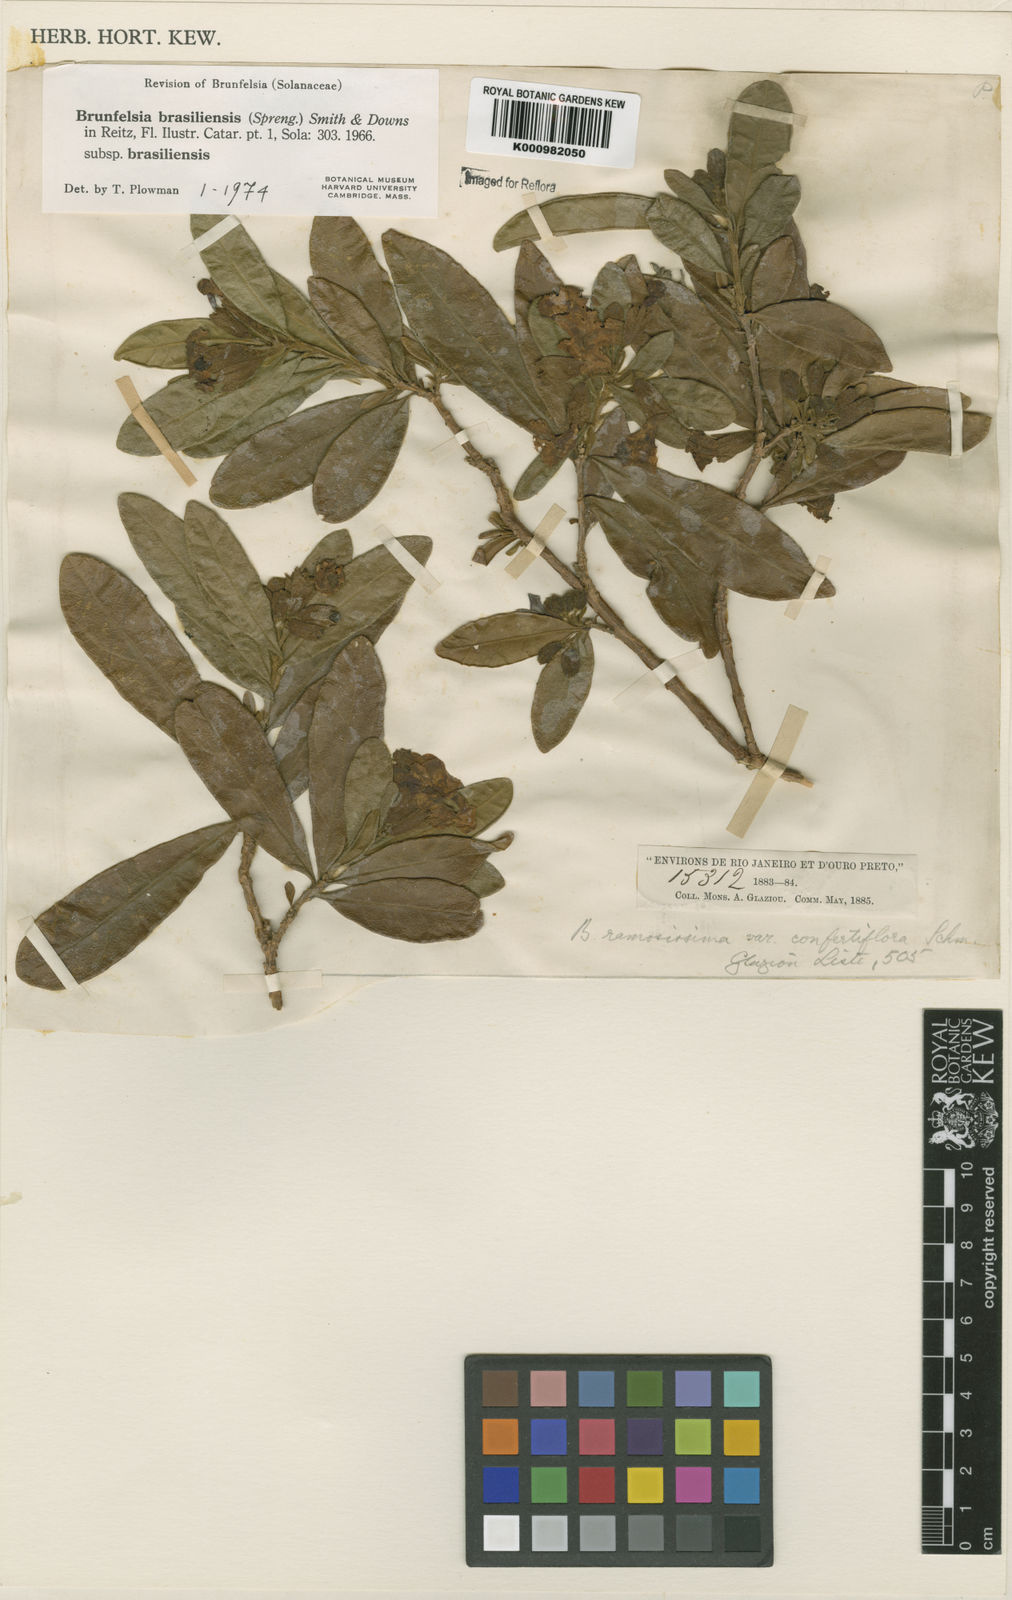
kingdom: Plantae
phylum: Tracheophyta
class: Magnoliopsida
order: Solanales
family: Solanaceae
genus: Brunfelsia
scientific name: Brunfelsia brasiliensis
